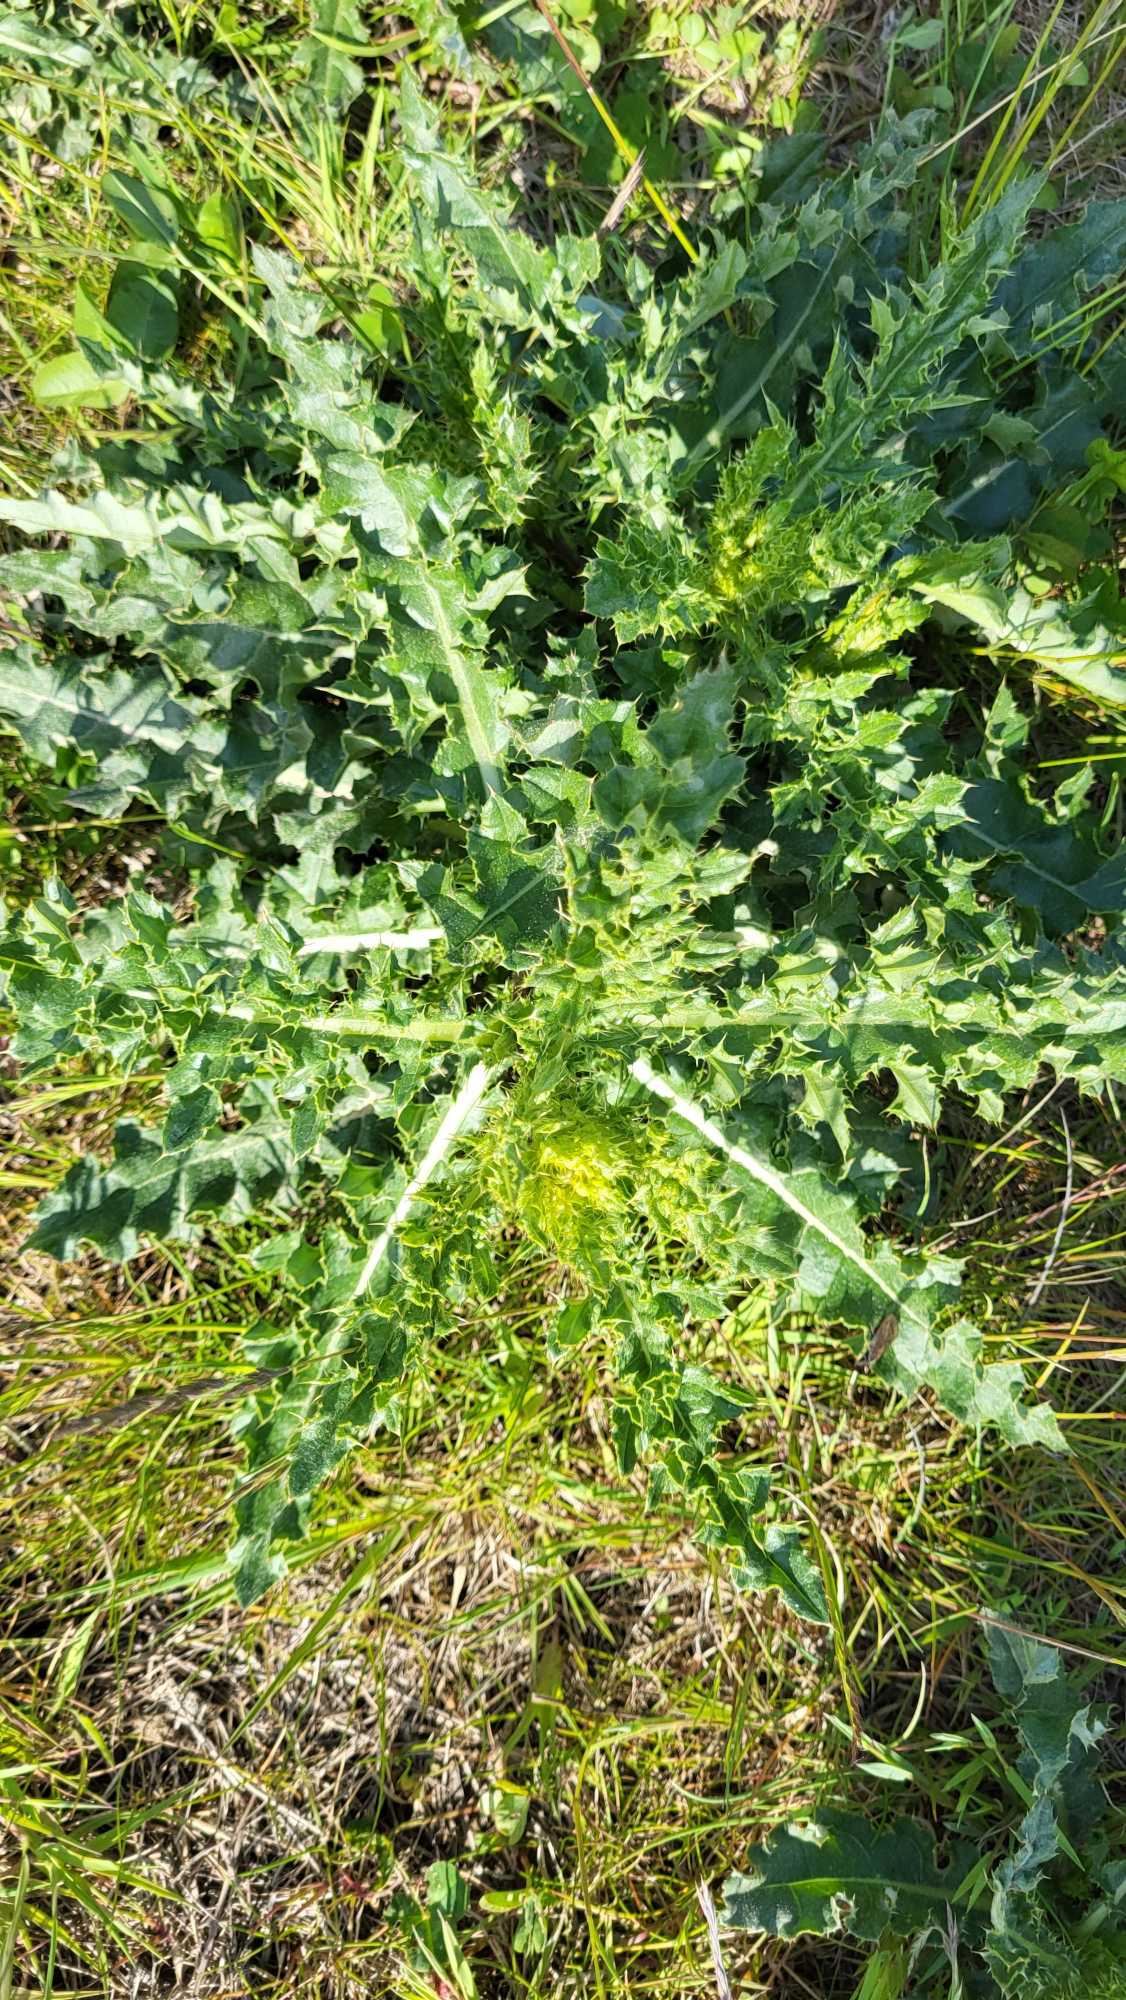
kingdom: Plantae
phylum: Tracheophyta
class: Magnoliopsida
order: Asterales
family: Asteraceae
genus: Cirsium
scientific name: Cirsium arvense
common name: Ager-tidsel
